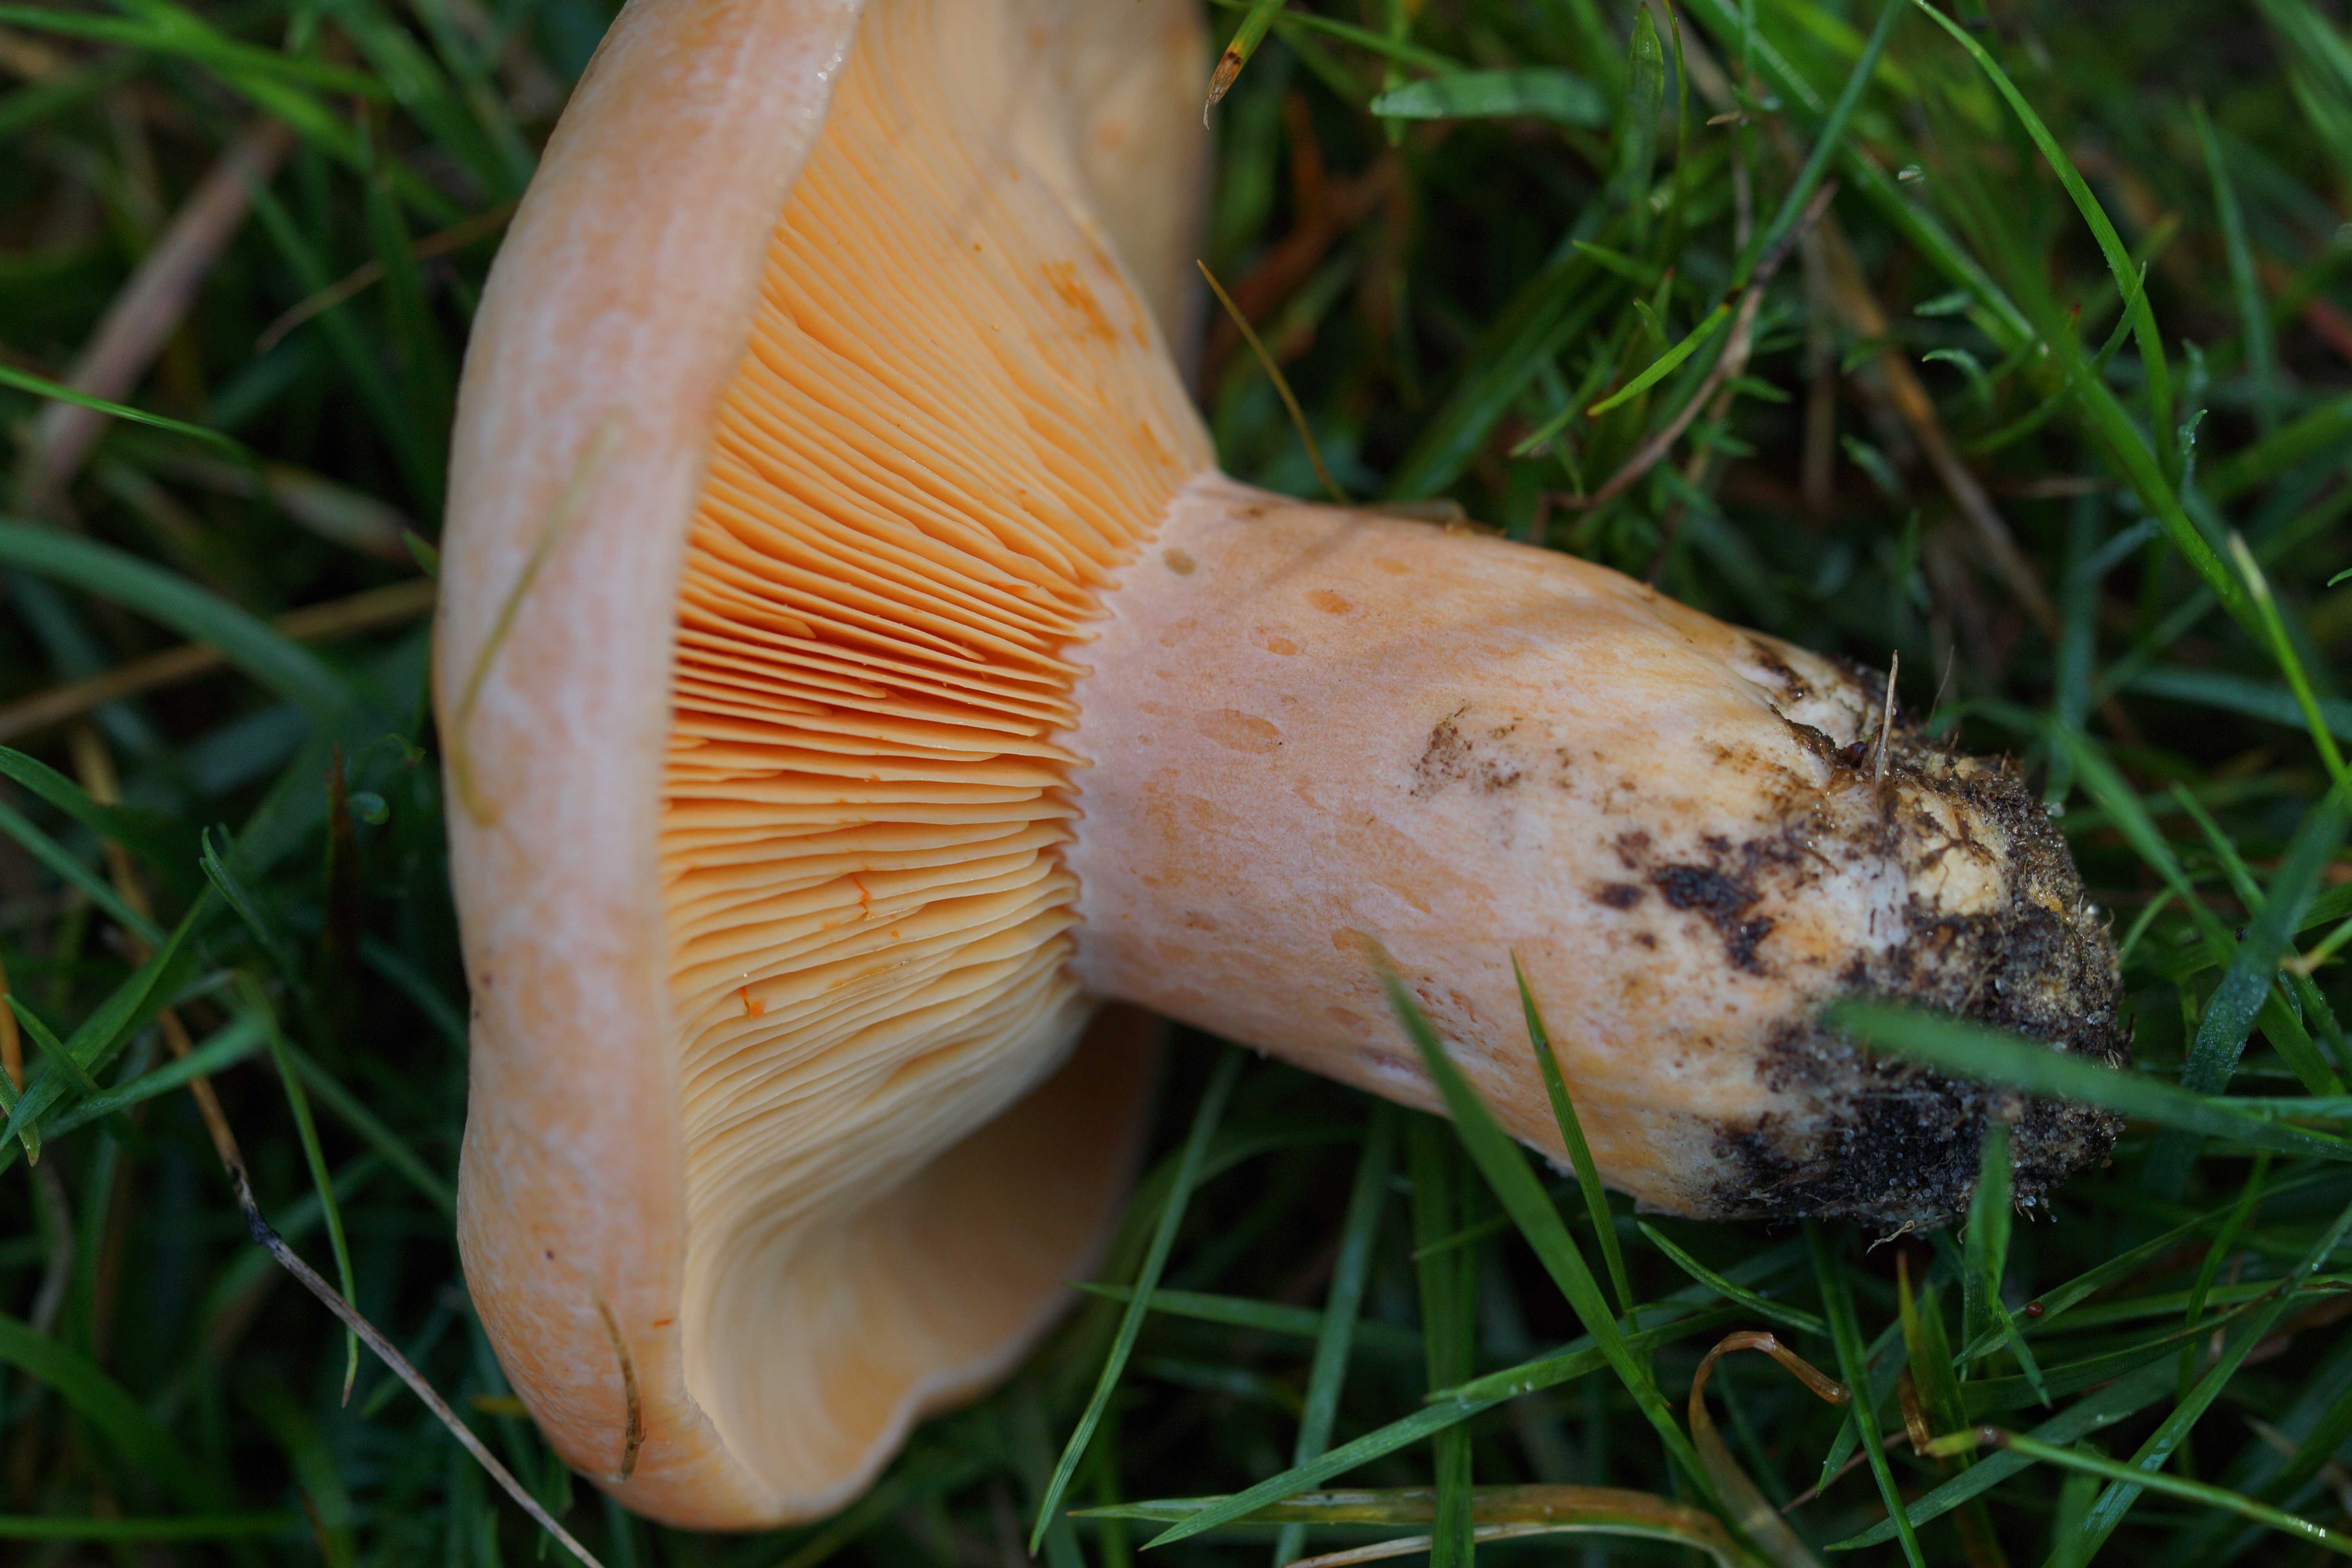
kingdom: Fungi
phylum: Basidiomycota
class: Agaricomycetes
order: Russulales
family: Russulaceae
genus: Lactarius
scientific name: Lactarius deliciosus
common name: velsmagende mælkehat
